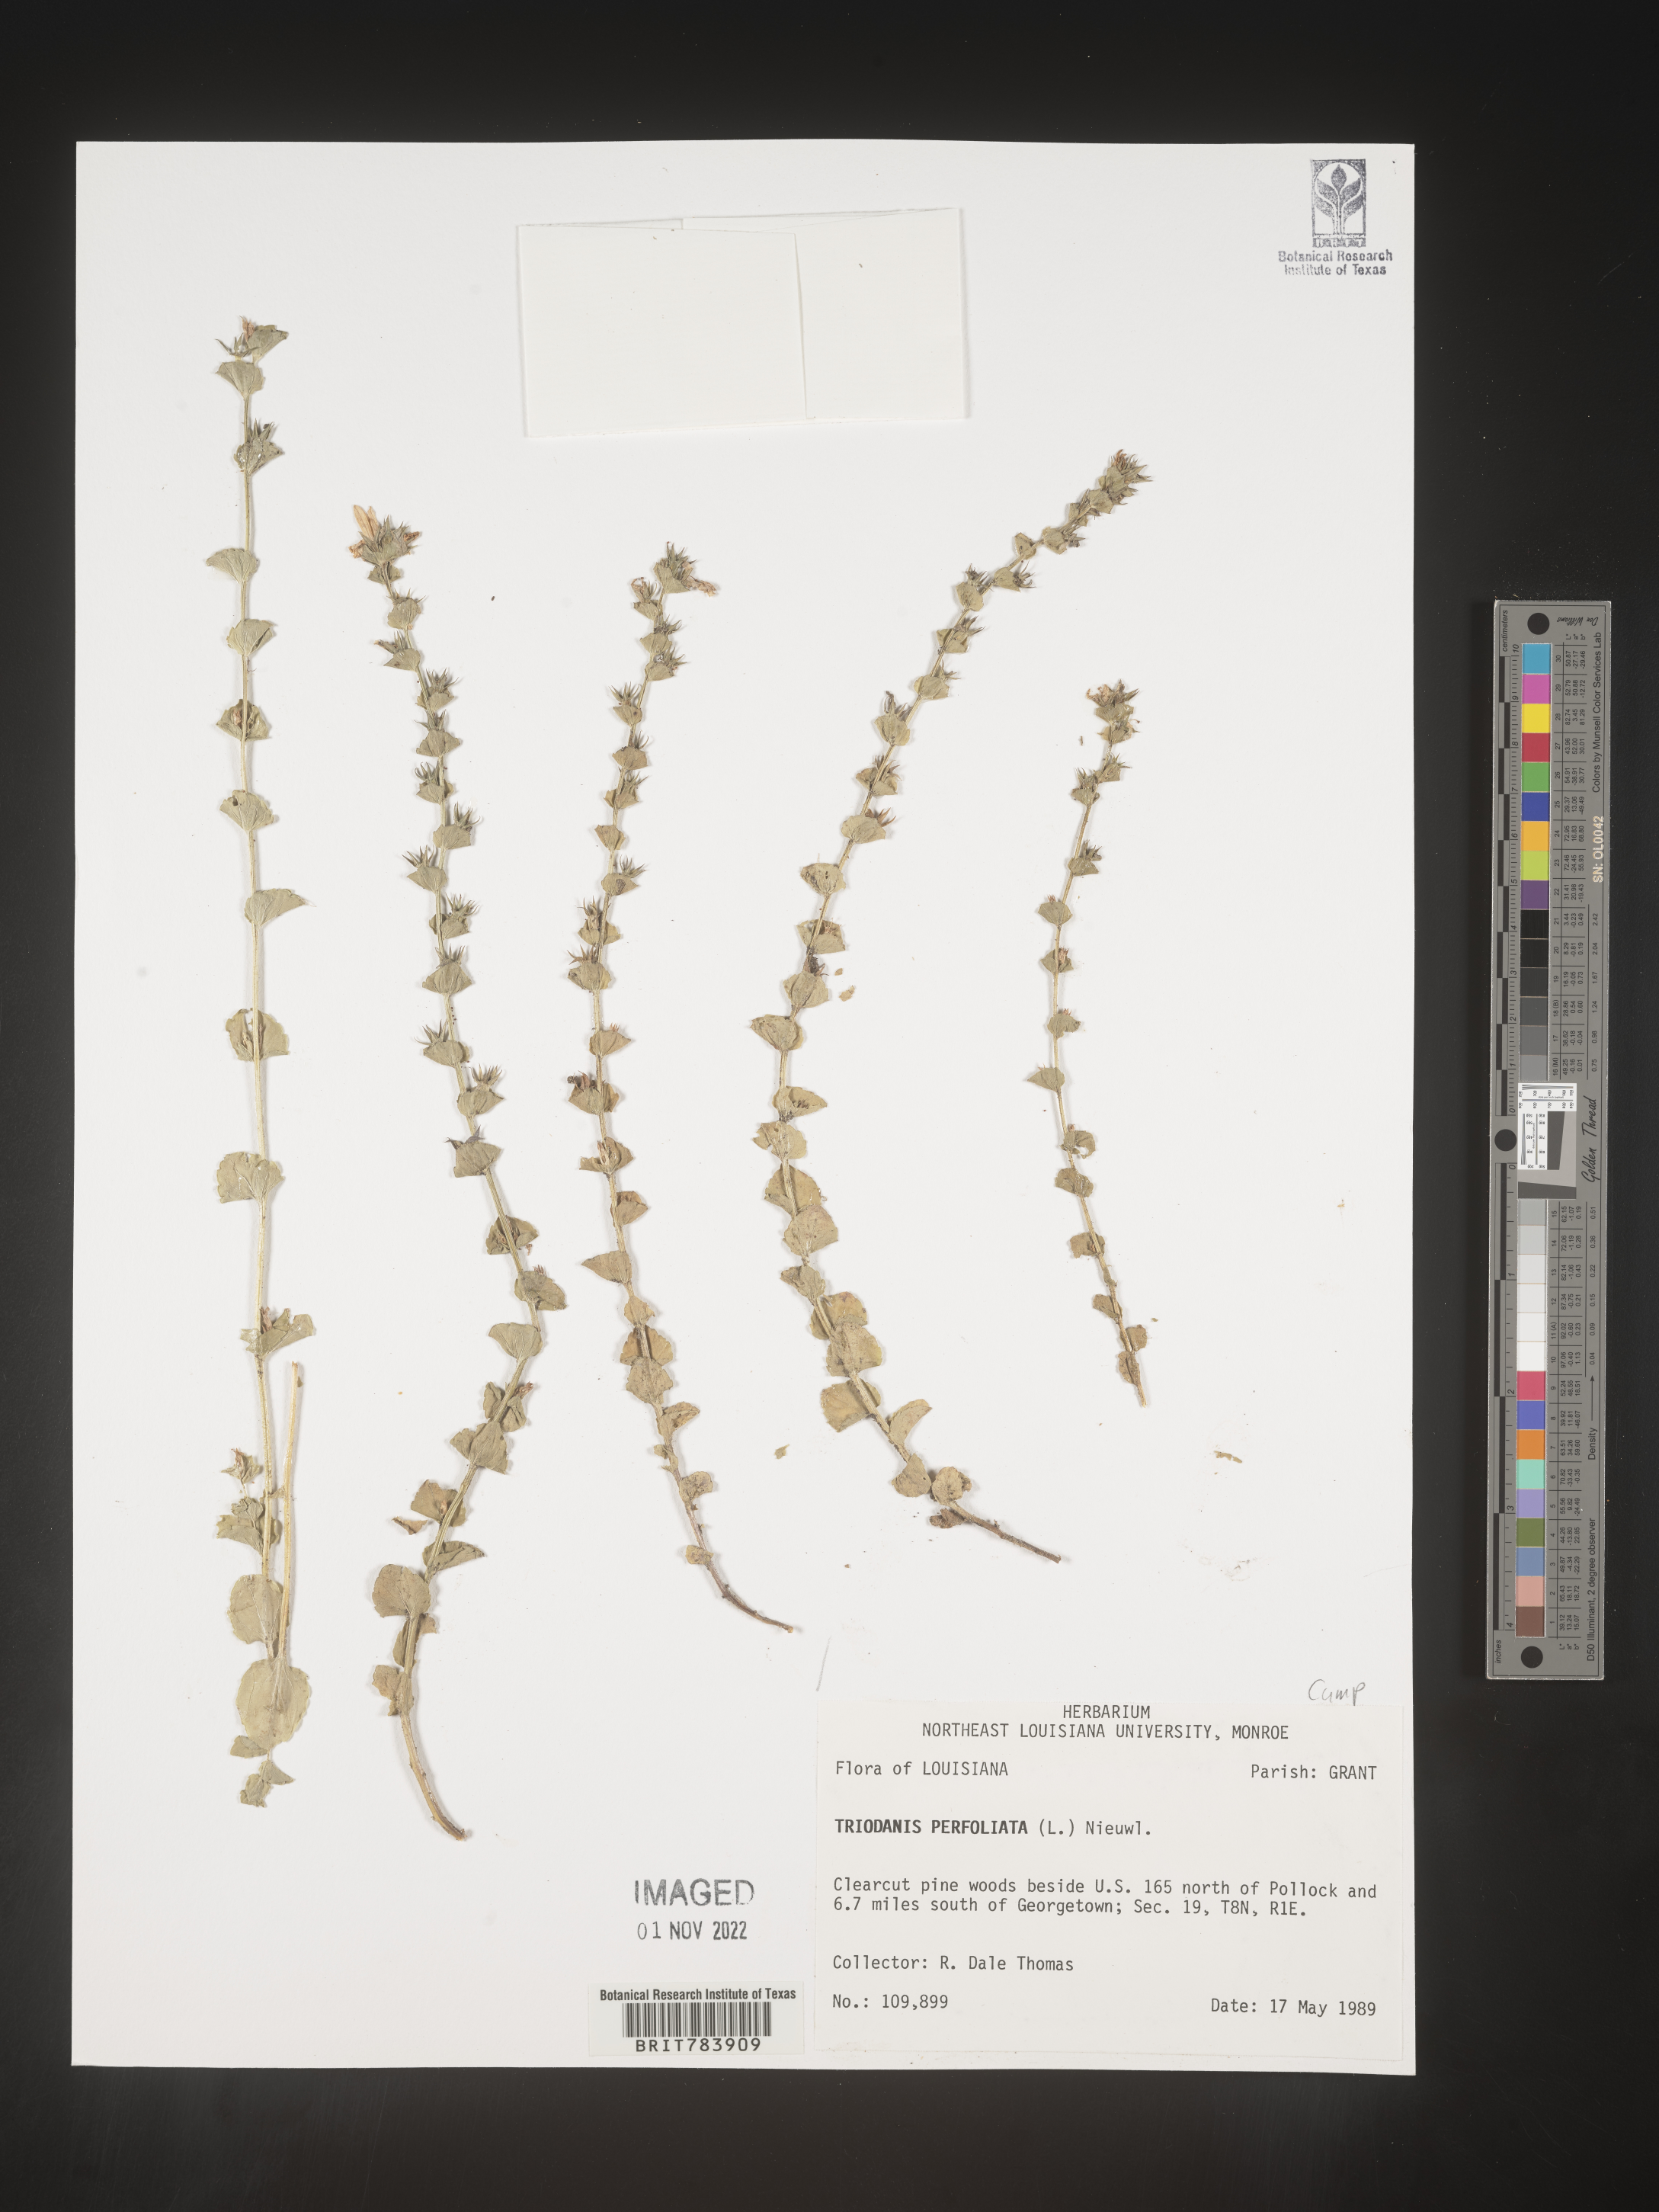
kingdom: Plantae
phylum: Tracheophyta
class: Magnoliopsida
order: Asterales
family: Campanulaceae
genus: Triodanis
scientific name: Triodanis perfoliata
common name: Clasping venus' looking-glass
